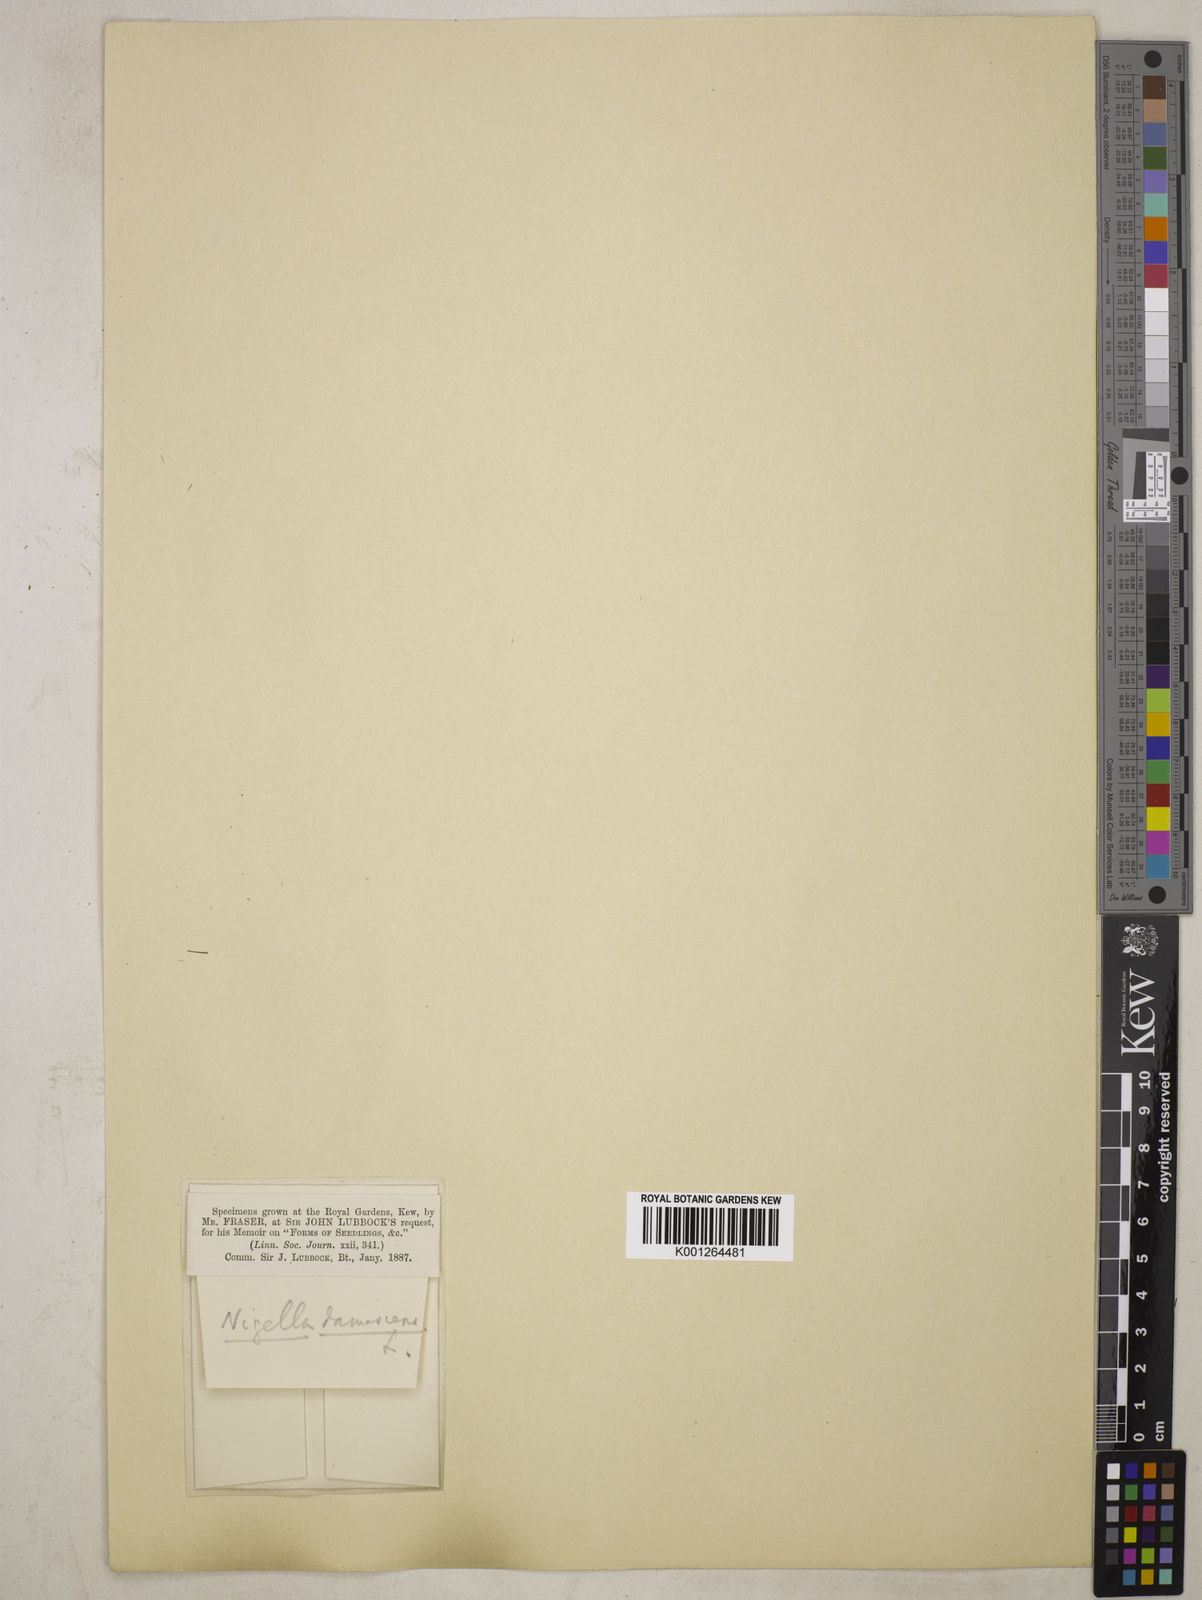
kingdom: Plantae
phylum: Tracheophyta
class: Magnoliopsida
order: Ranunculales
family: Ranunculaceae
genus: Nigella
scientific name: Nigella damascena
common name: Love-in-a-mist
